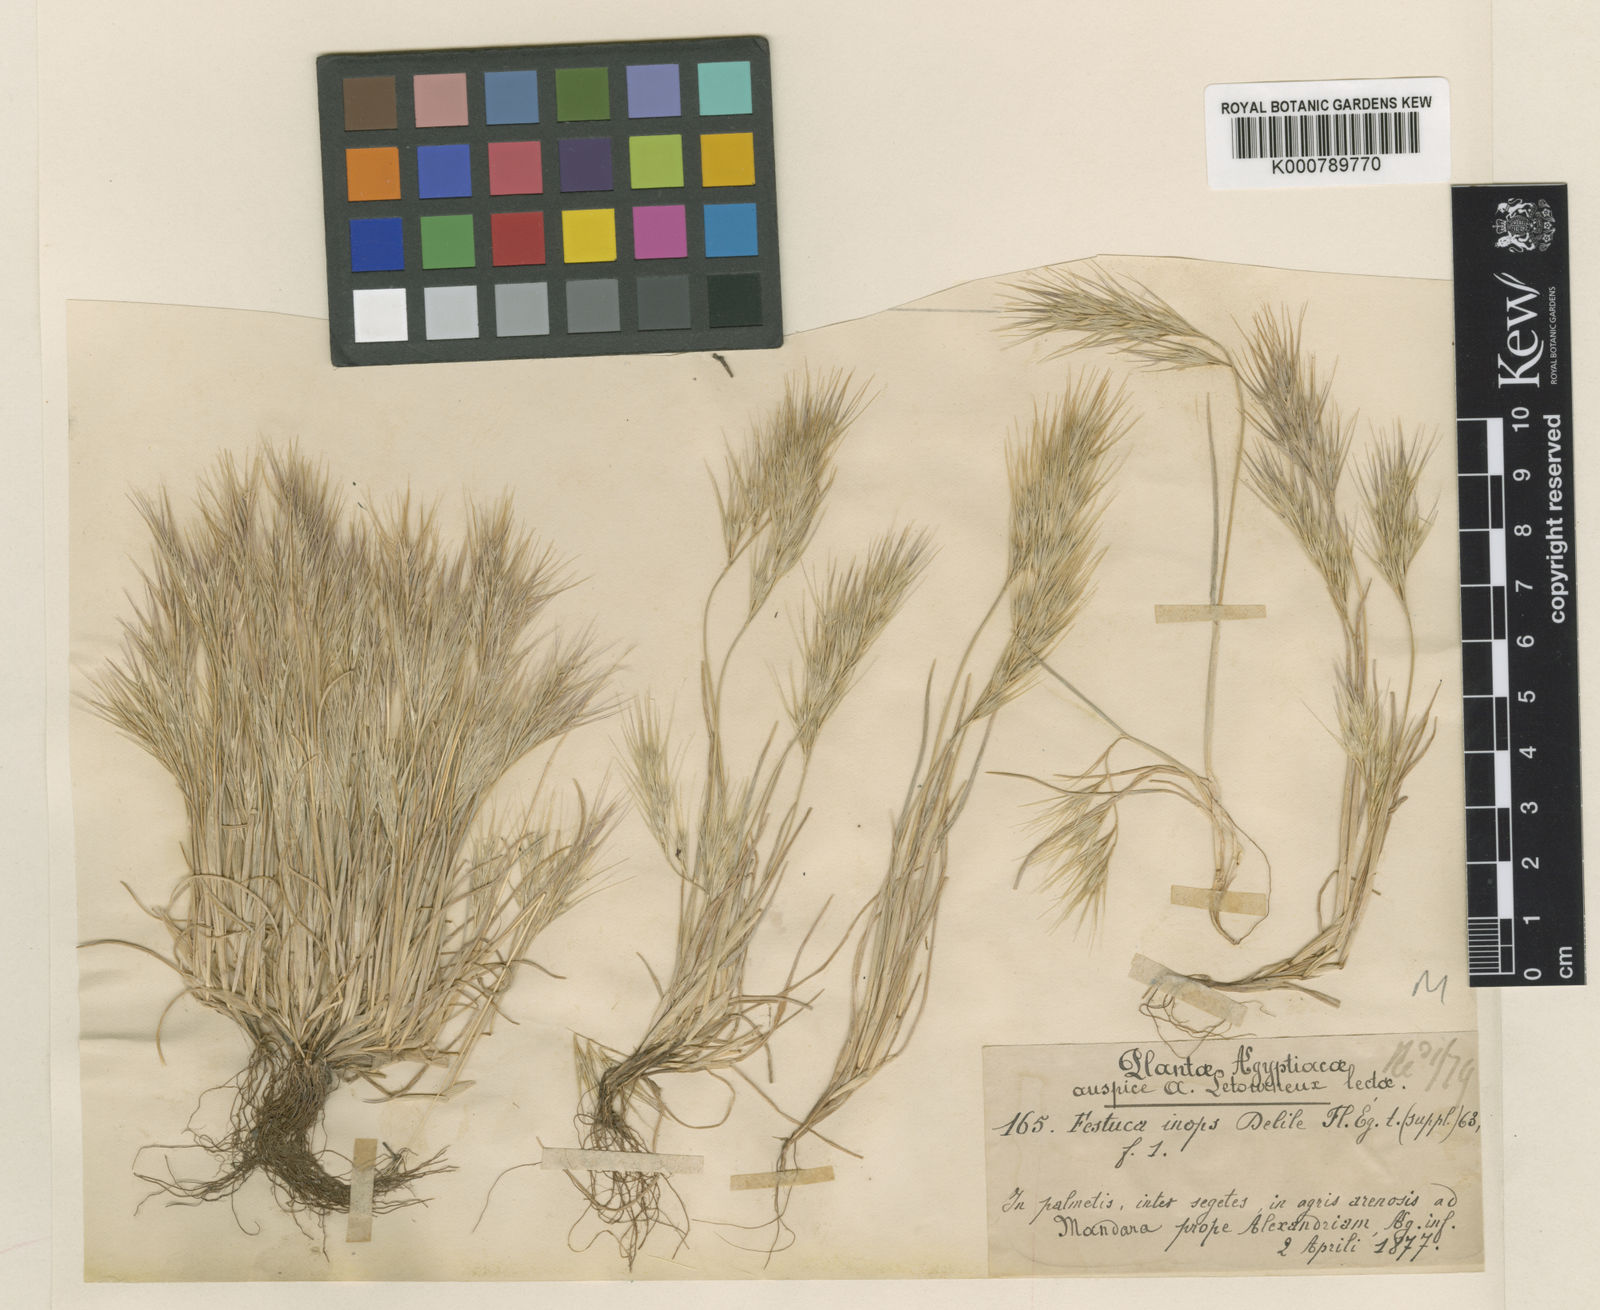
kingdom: Plantae
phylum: Tracheophyta
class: Liliopsida
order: Poales
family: Poaceae
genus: Festuca
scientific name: Festuca brevis
